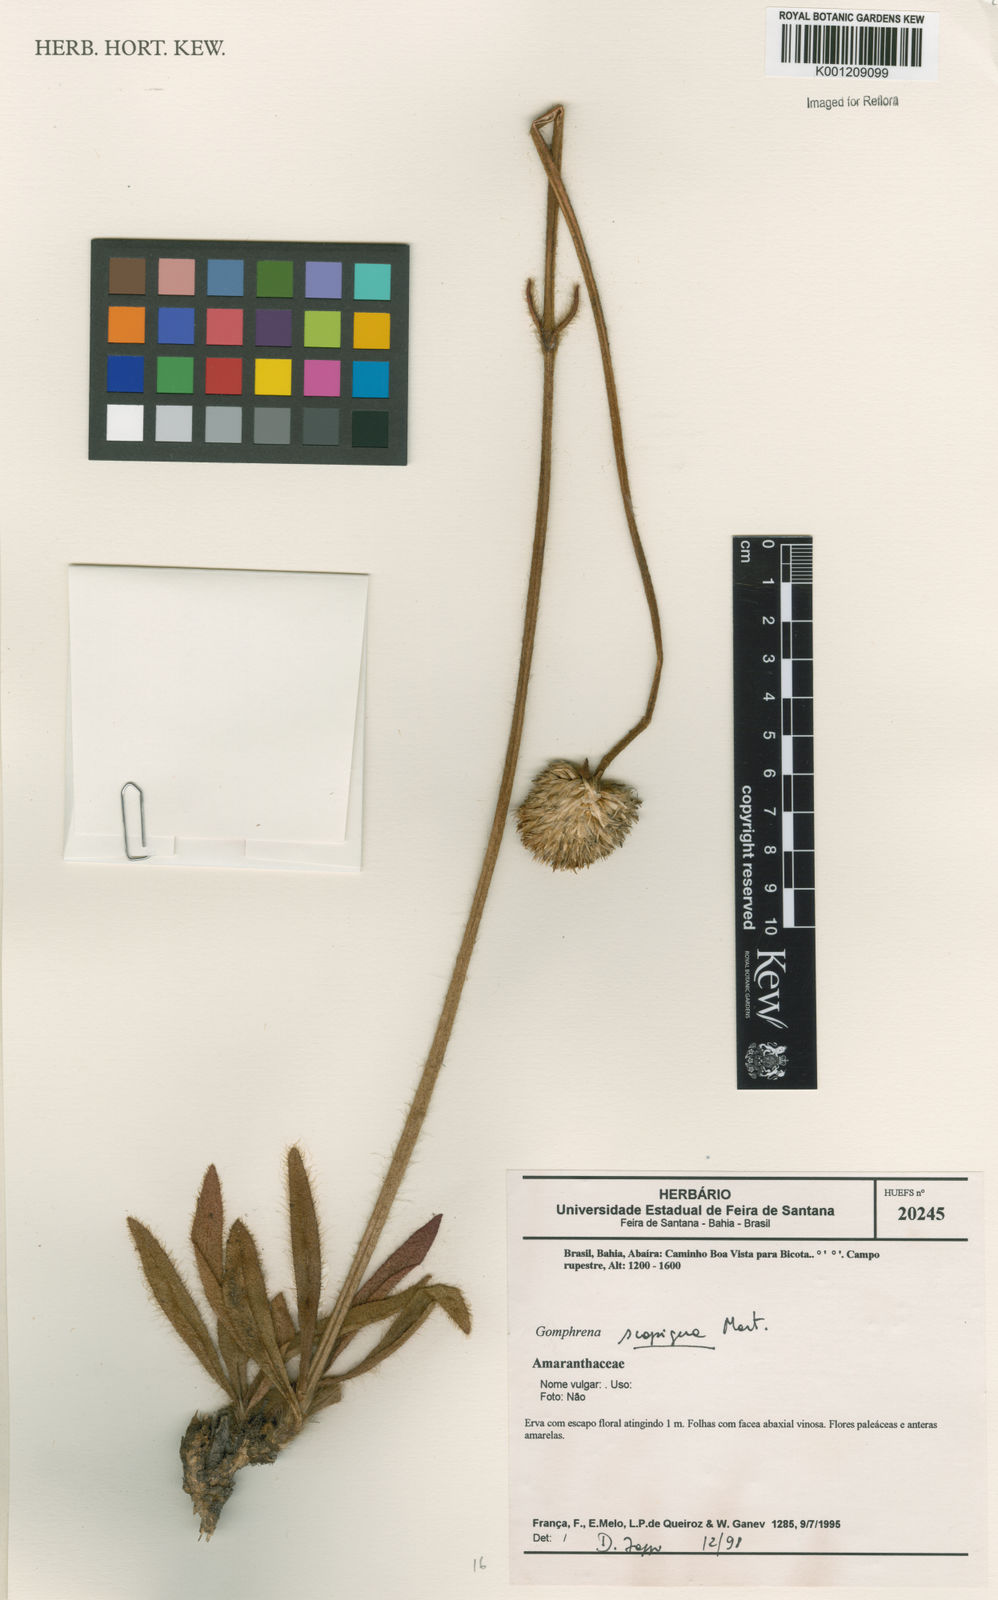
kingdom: Plantae
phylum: Tracheophyta
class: Magnoliopsida
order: Caryophyllales
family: Amaranthaceae
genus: Gomphrena
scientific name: Gomphrena scapigera
